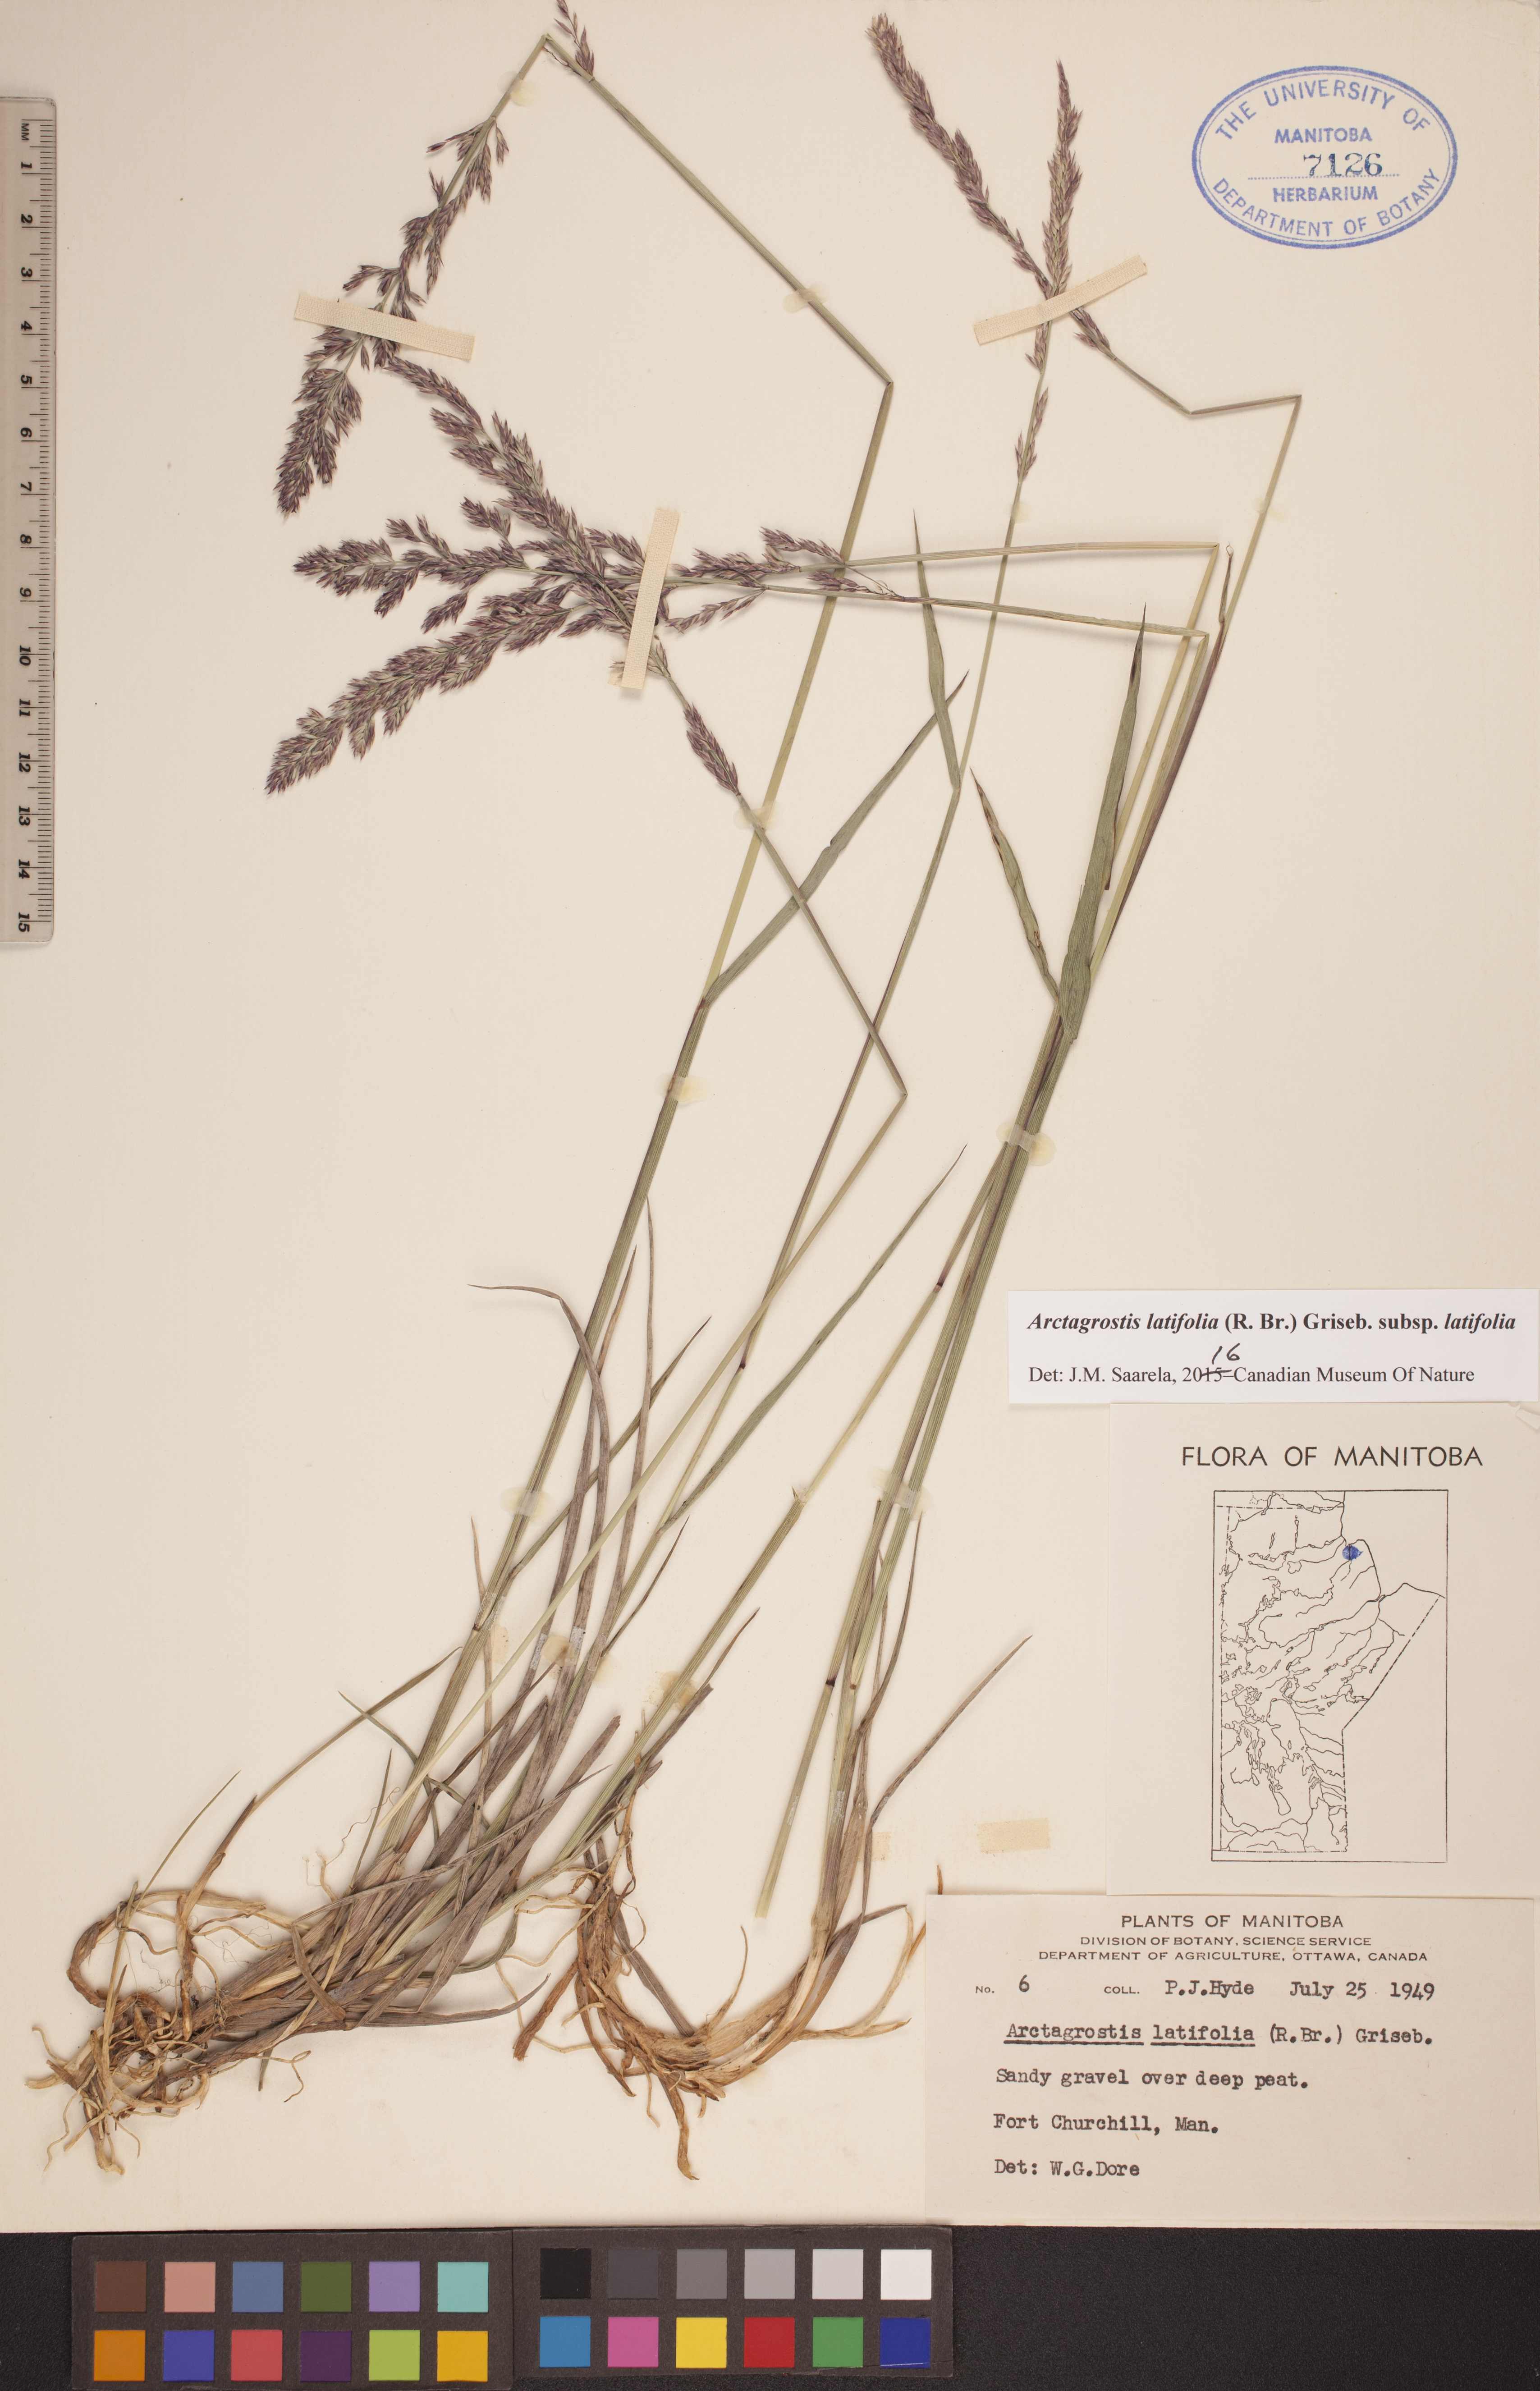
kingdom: Plantae
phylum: Tracheophyta
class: Liliopsida
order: Poales
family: Poaceae
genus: Arctagrostis
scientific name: Arctagrostis latifolia
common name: Arctic grass
